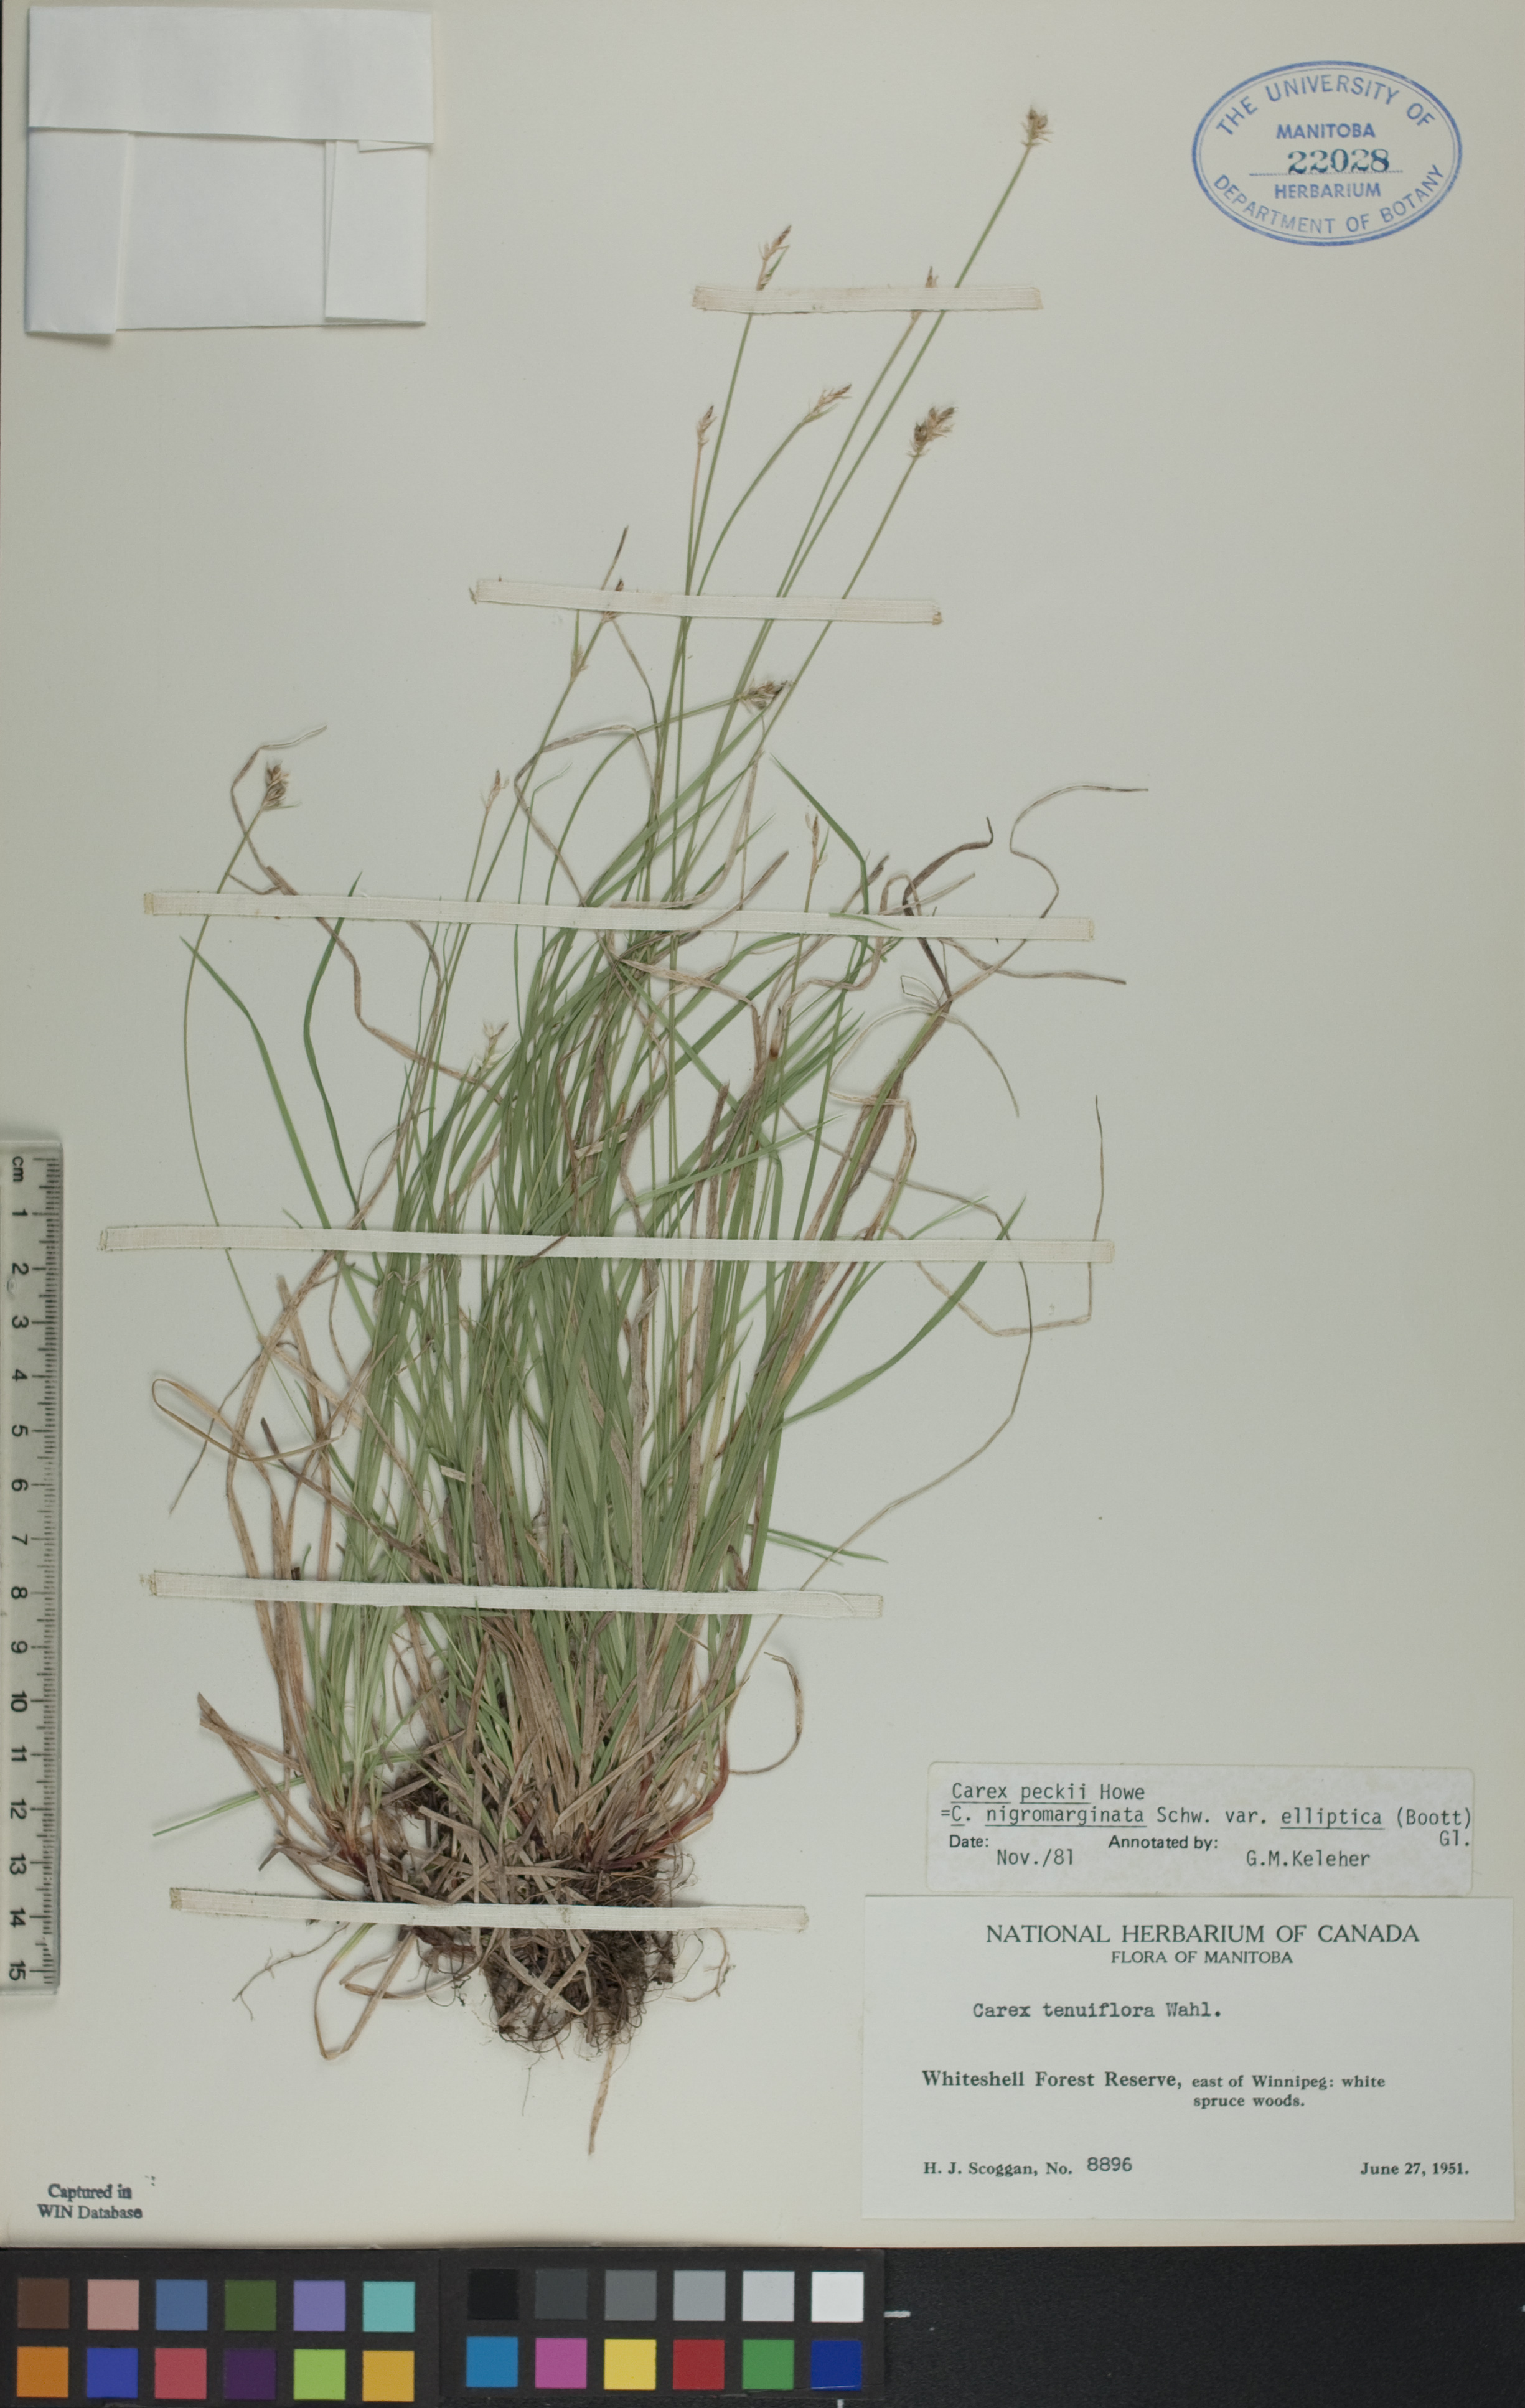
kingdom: Plantae
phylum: Tracheophyta
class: Liliopsida
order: Poales
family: Cyperaceae
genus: Carex
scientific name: Carex peckii
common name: Peck's oak sedge
